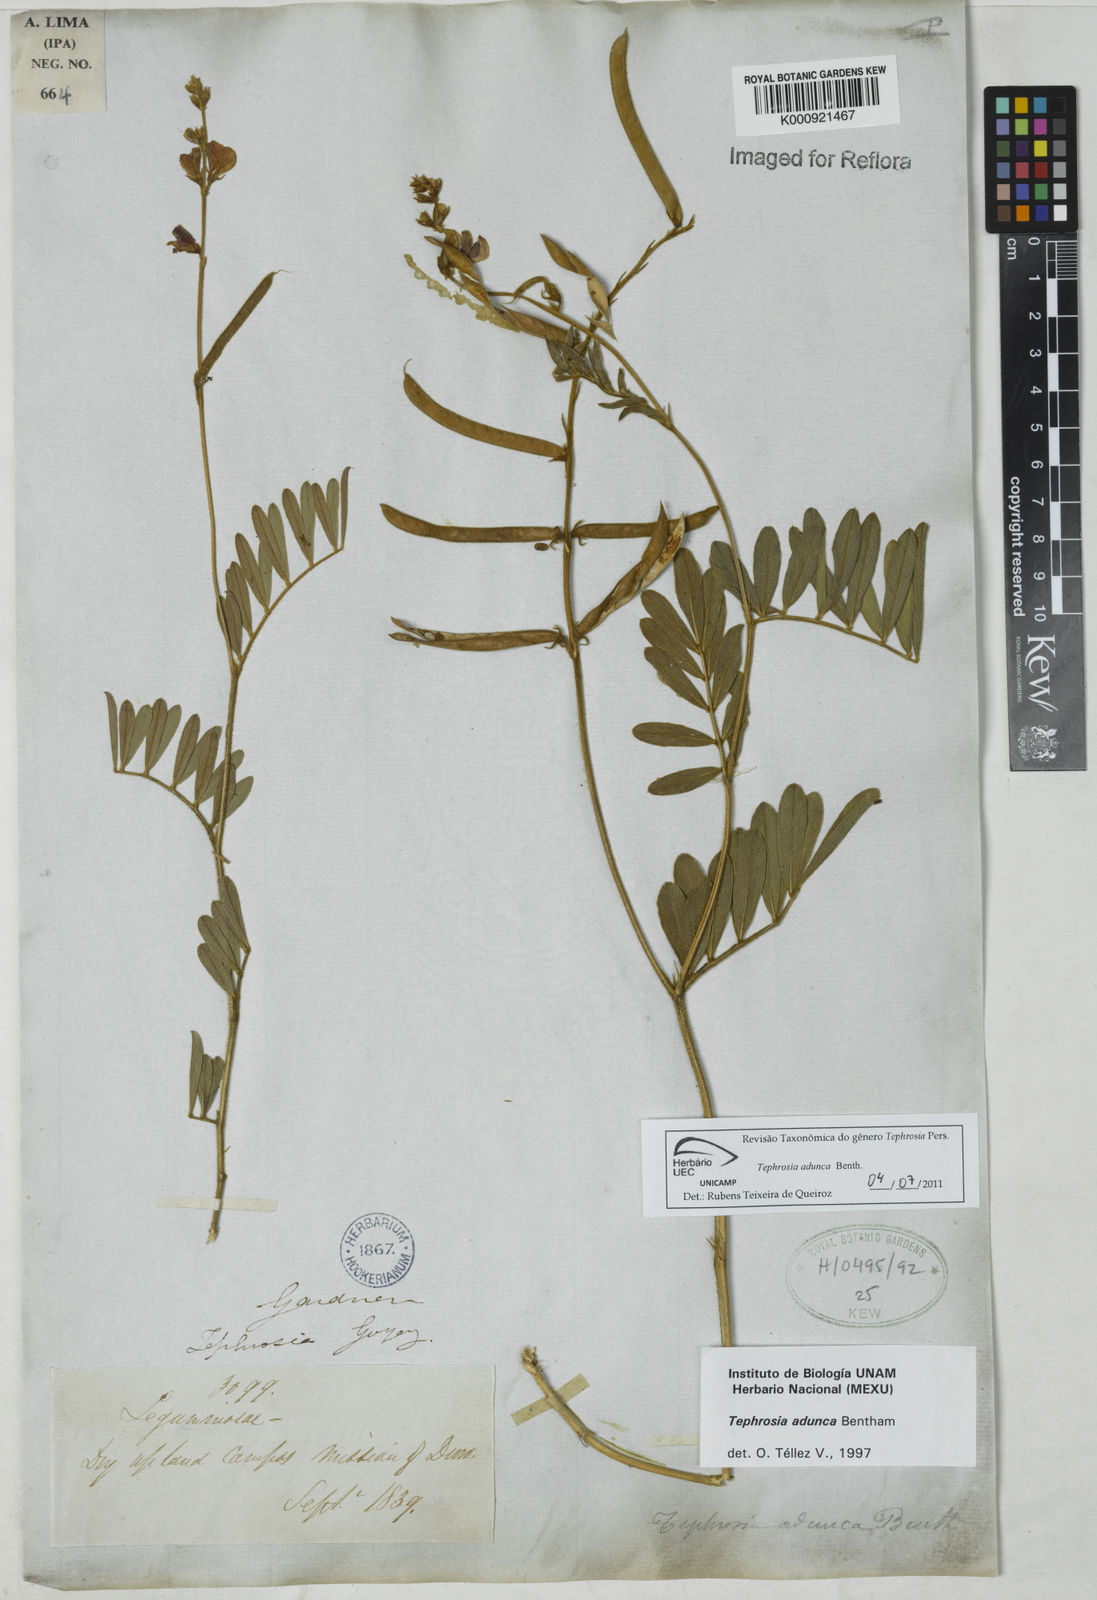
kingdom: Plantae
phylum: Tracheophyta
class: Magnoliopsida
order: Fabales
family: Fabaceae
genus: Tephrosia
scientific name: Tephrosia adunca
